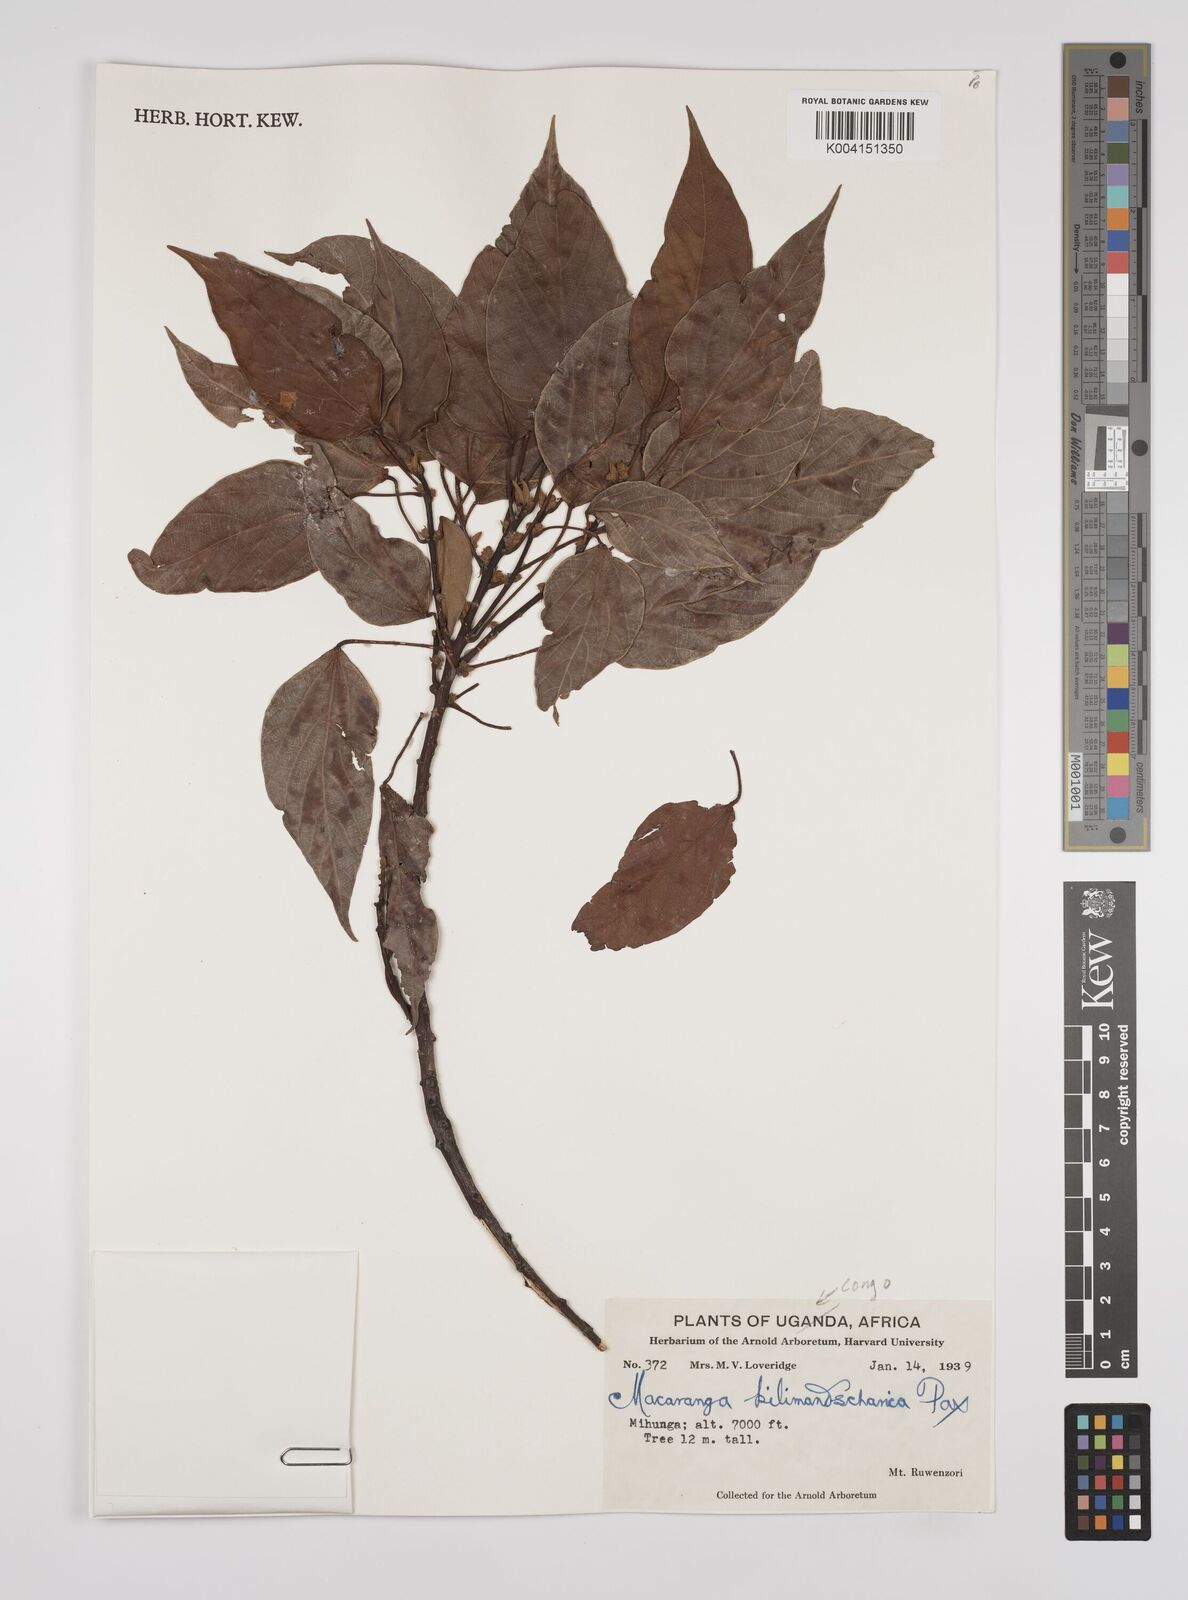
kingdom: Plantae
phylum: Tracheophyta
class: Magnoliopsida
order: Malpighiales
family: Euphorbiaceae
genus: Macaranga
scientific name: Macaranga kilimandscharica
